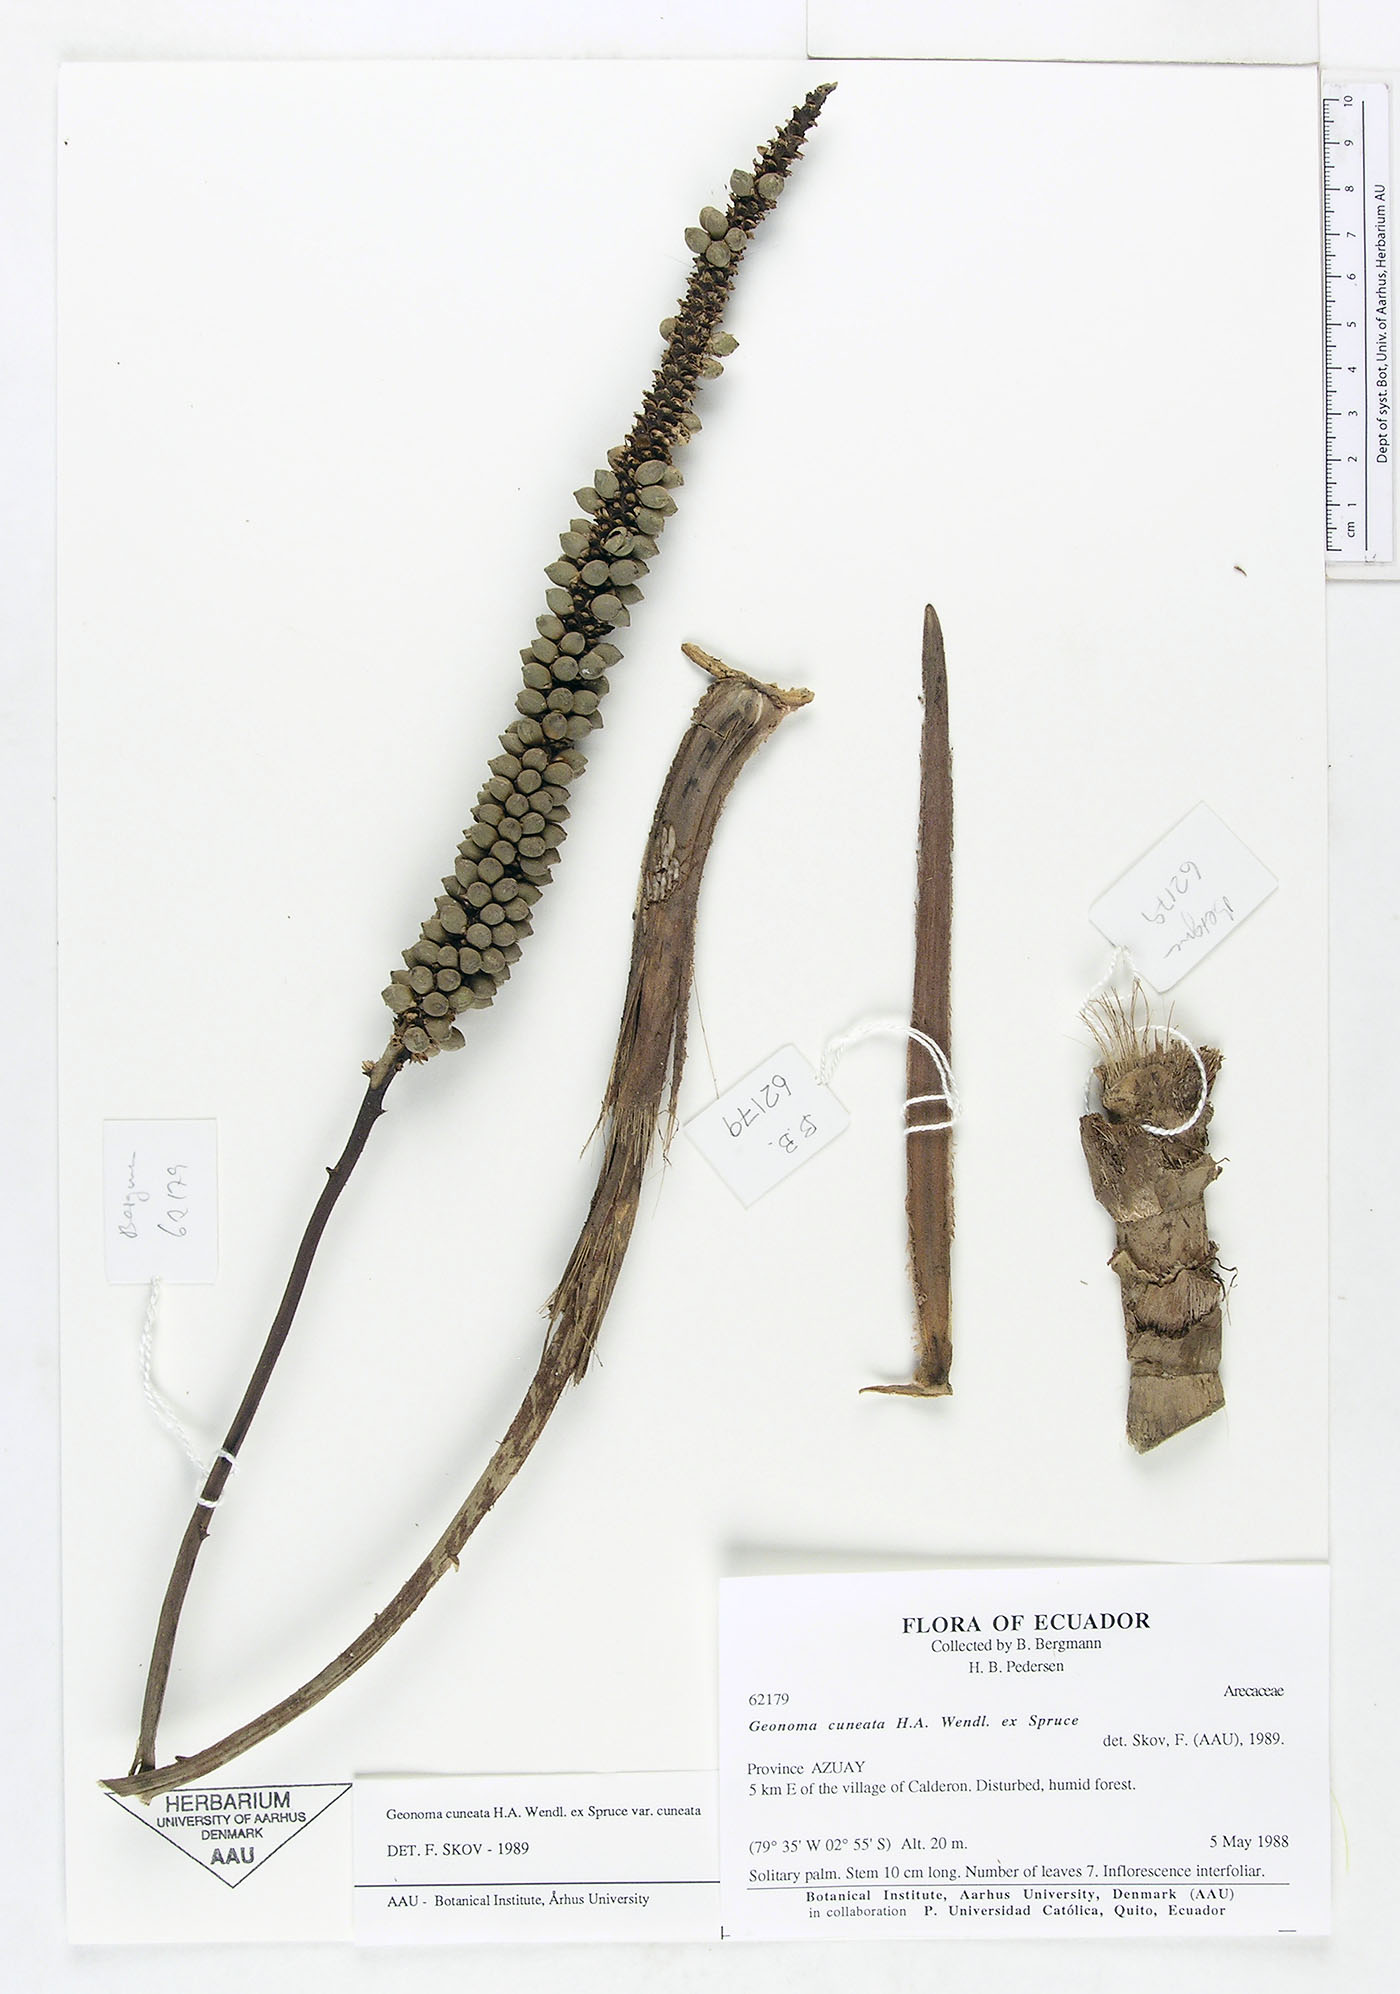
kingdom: Plantae
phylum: Tracheophyta
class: Liliopsida
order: Arecales
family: Arecaceae
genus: Geonoma
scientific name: Geonoma cuneata
